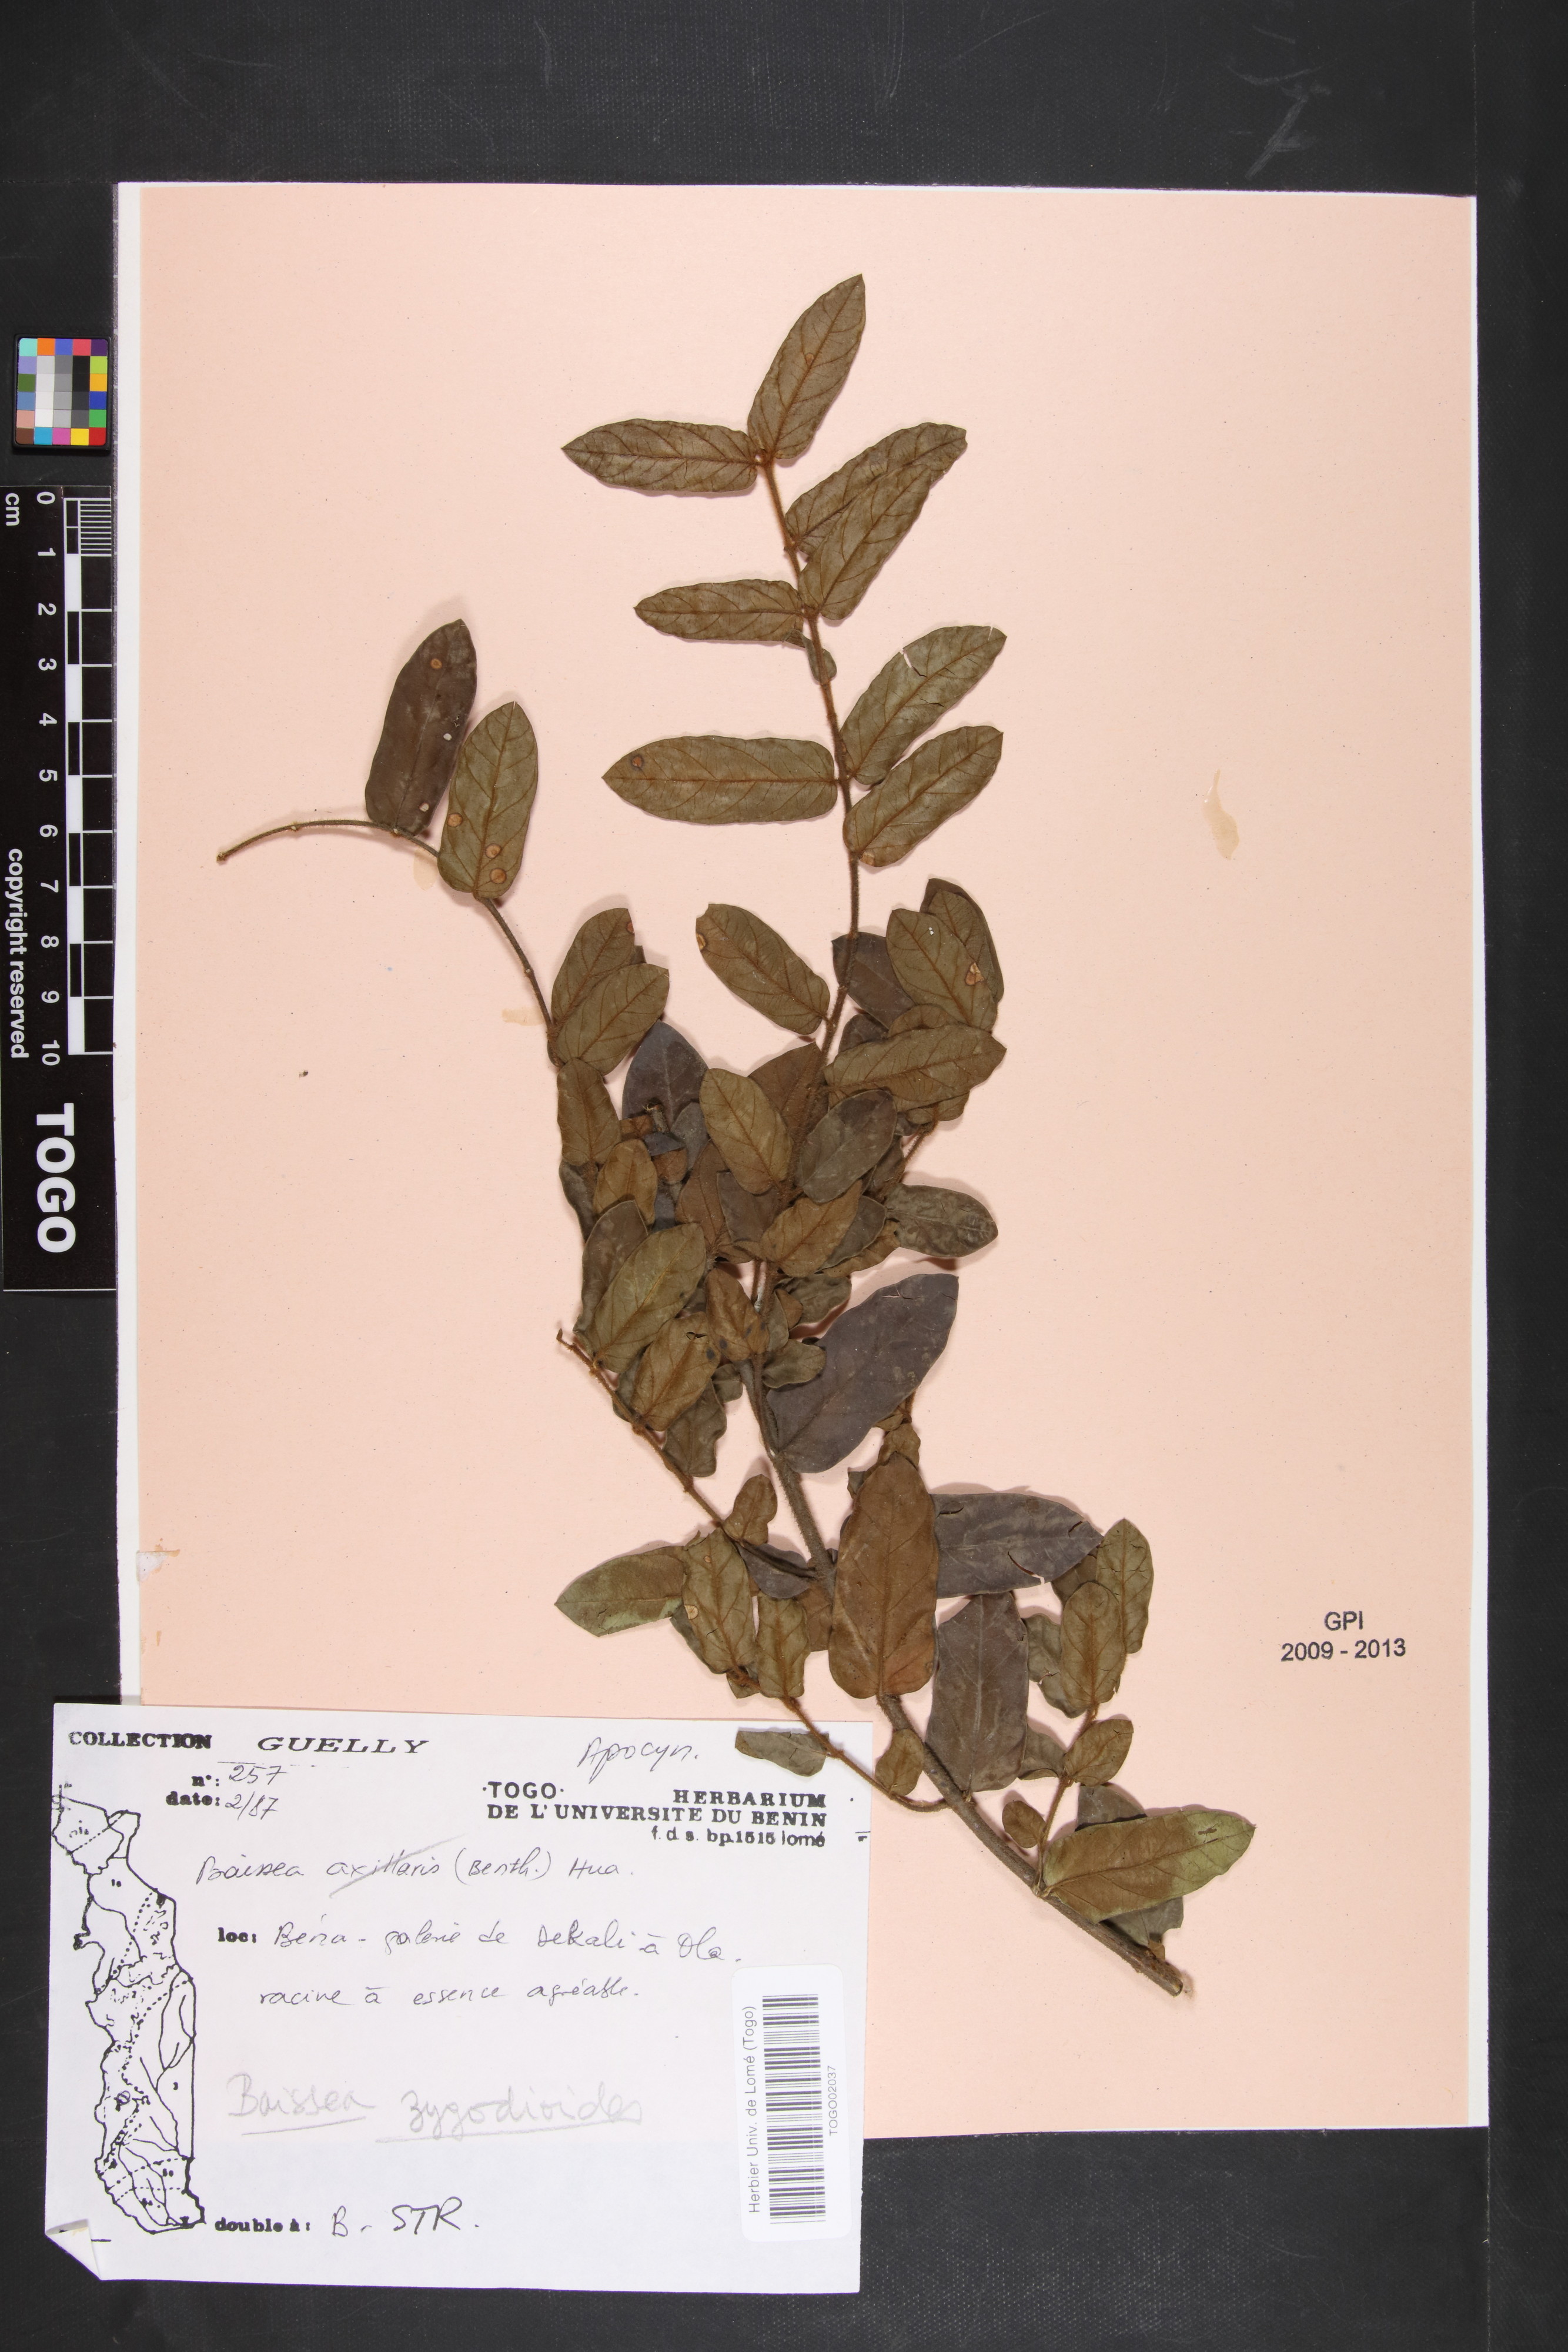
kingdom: Plantae
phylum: Tracheophyta
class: Magnoliopsida
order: Gentianales
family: Apocynaceae
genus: Baissea
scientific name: Baissea zygodioides
